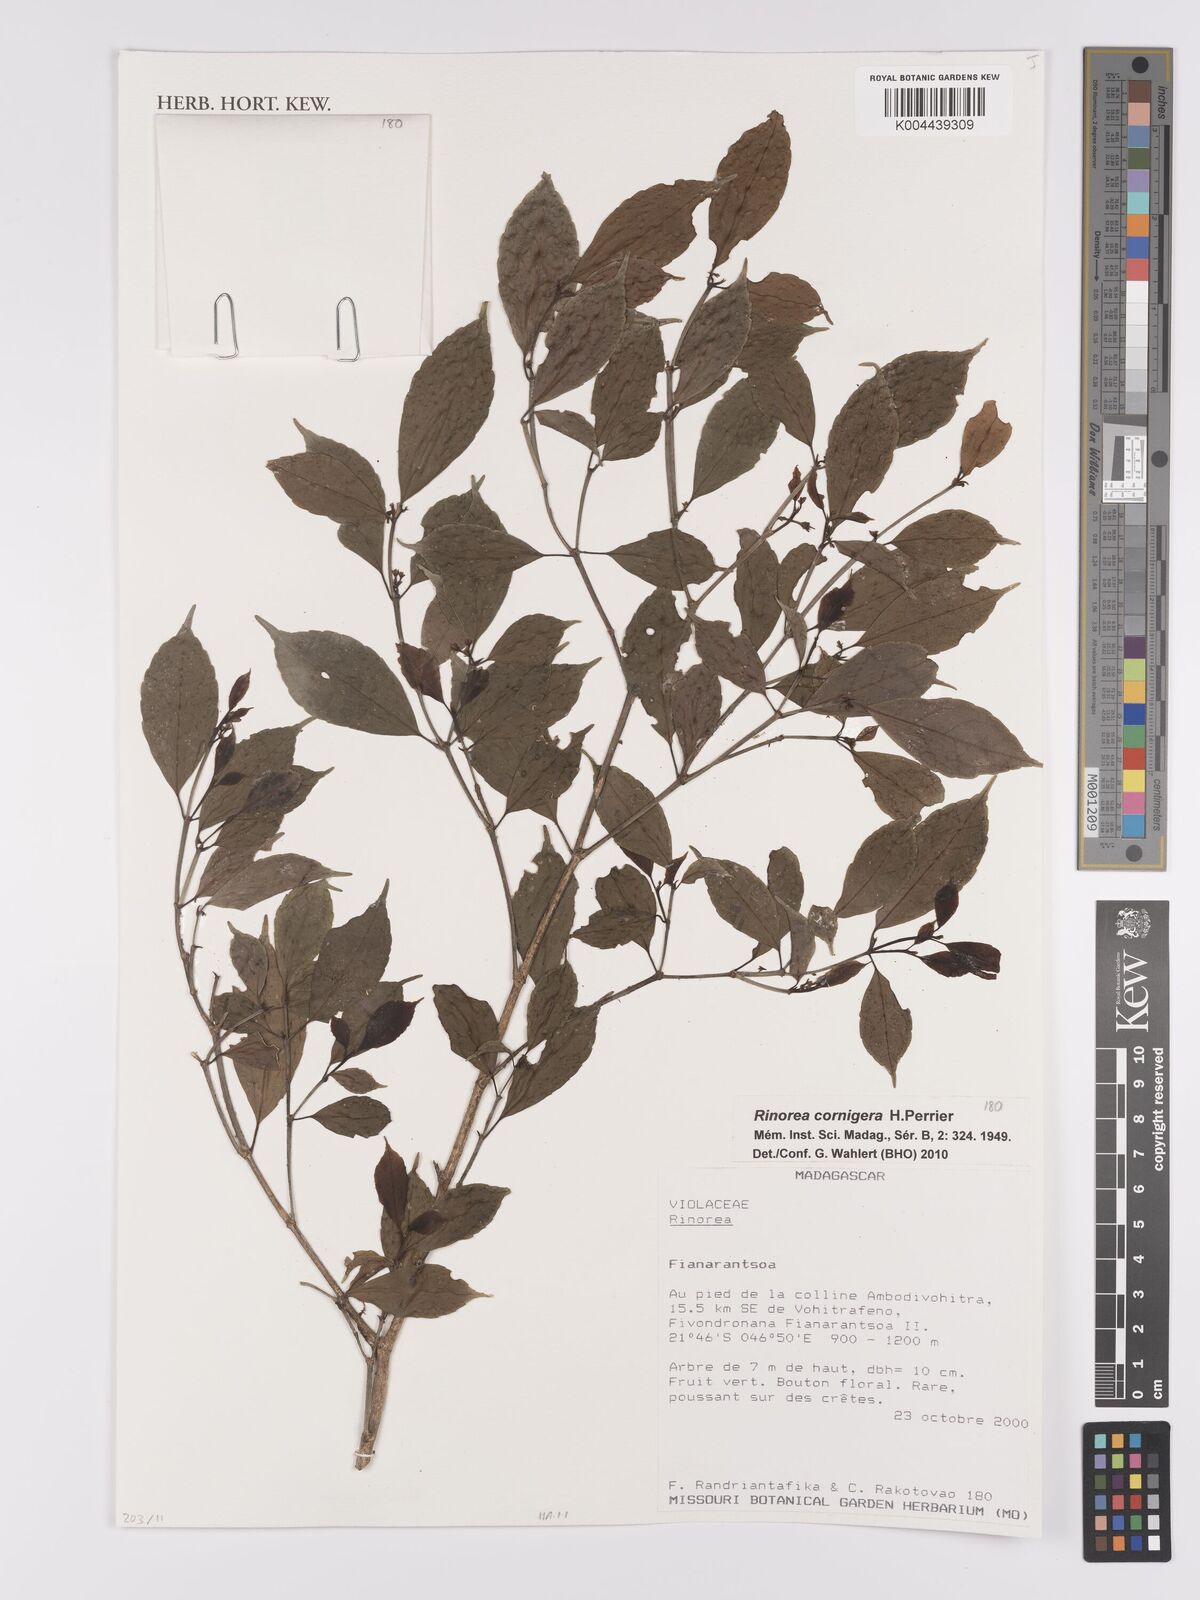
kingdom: Plantae
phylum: Tracheophyta
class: Magnoliopsida
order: Malpighiales
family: Violaceae
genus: Rinorea
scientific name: Rinorea cornigera
